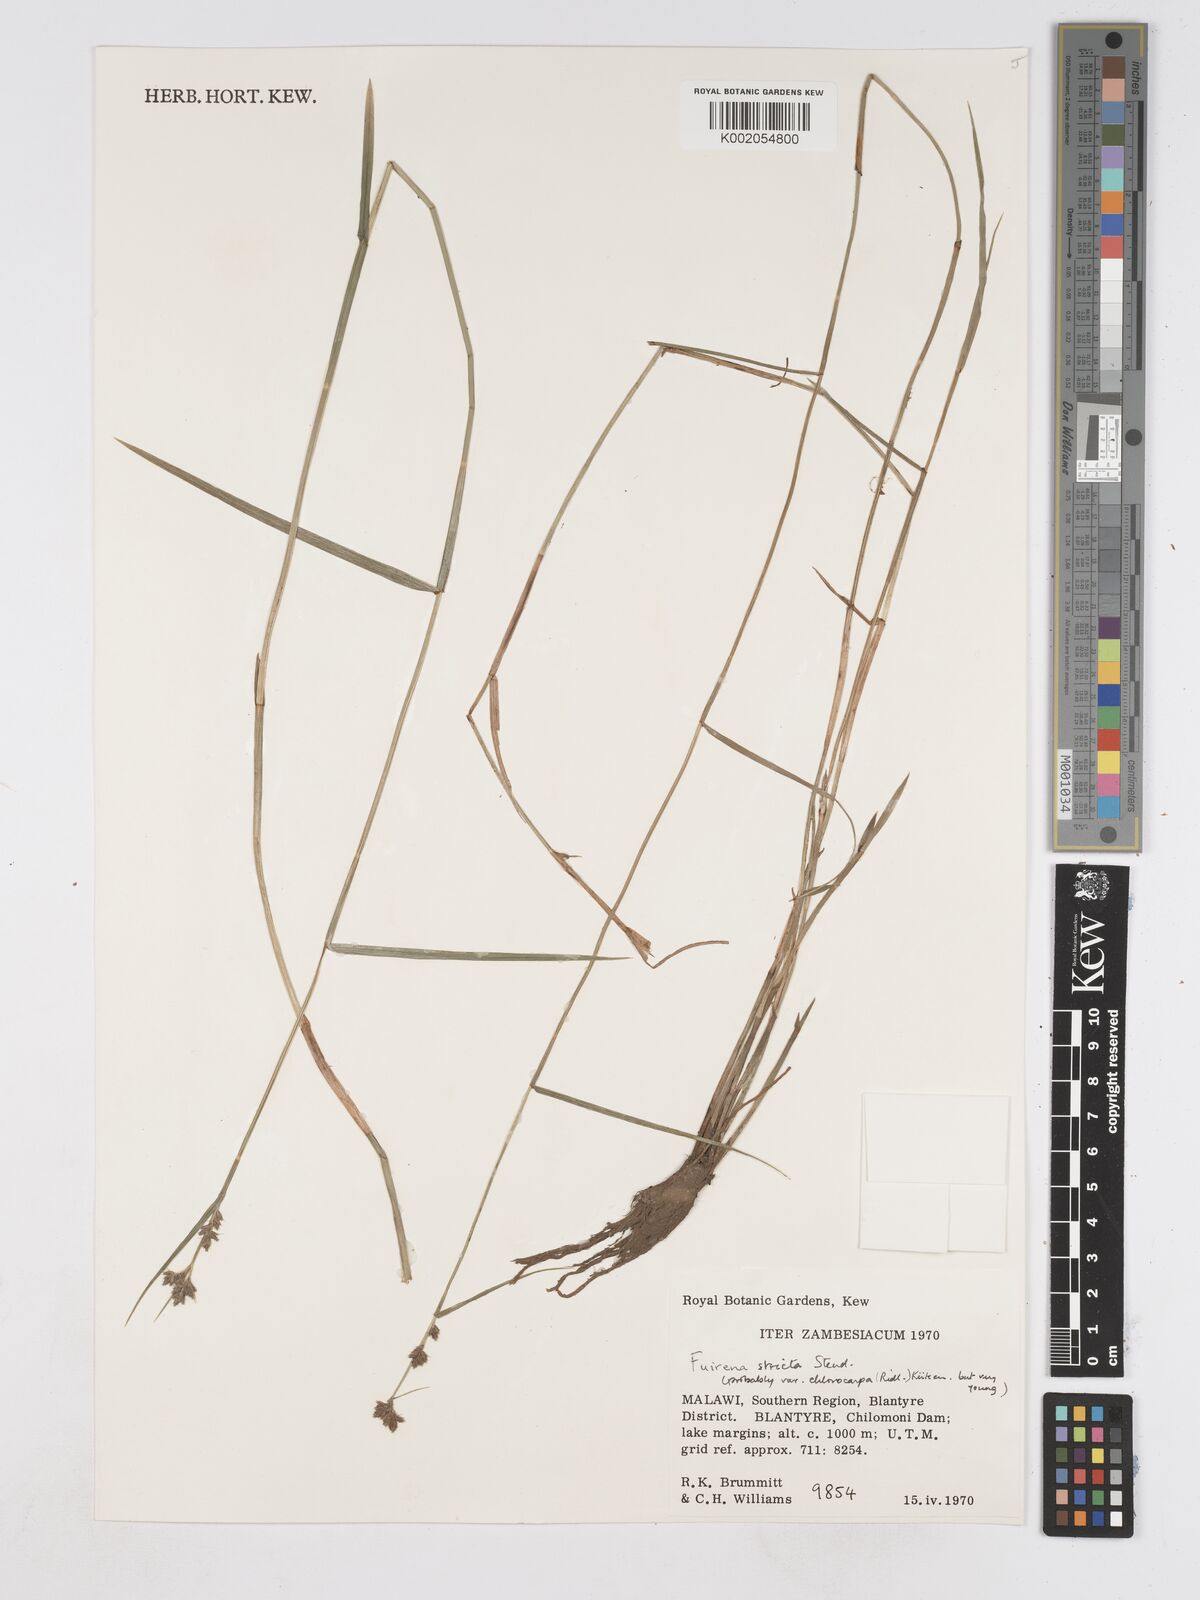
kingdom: Plantae
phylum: Tracheophyta
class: Liliopsida
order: Poales
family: Cyperaceae
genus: Fuirena
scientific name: Fuirena stricta
